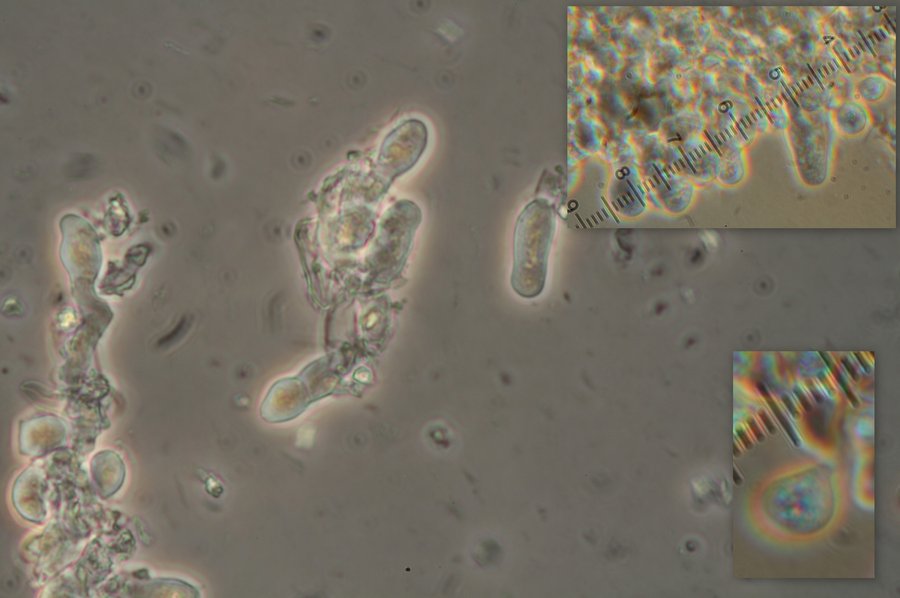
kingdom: Fungi
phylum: Basidiomycota
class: Agaricomycetes
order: Trechisporales
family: Hydnodontaceae
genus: Brevicellicium
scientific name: Brevicellicium olivascens
